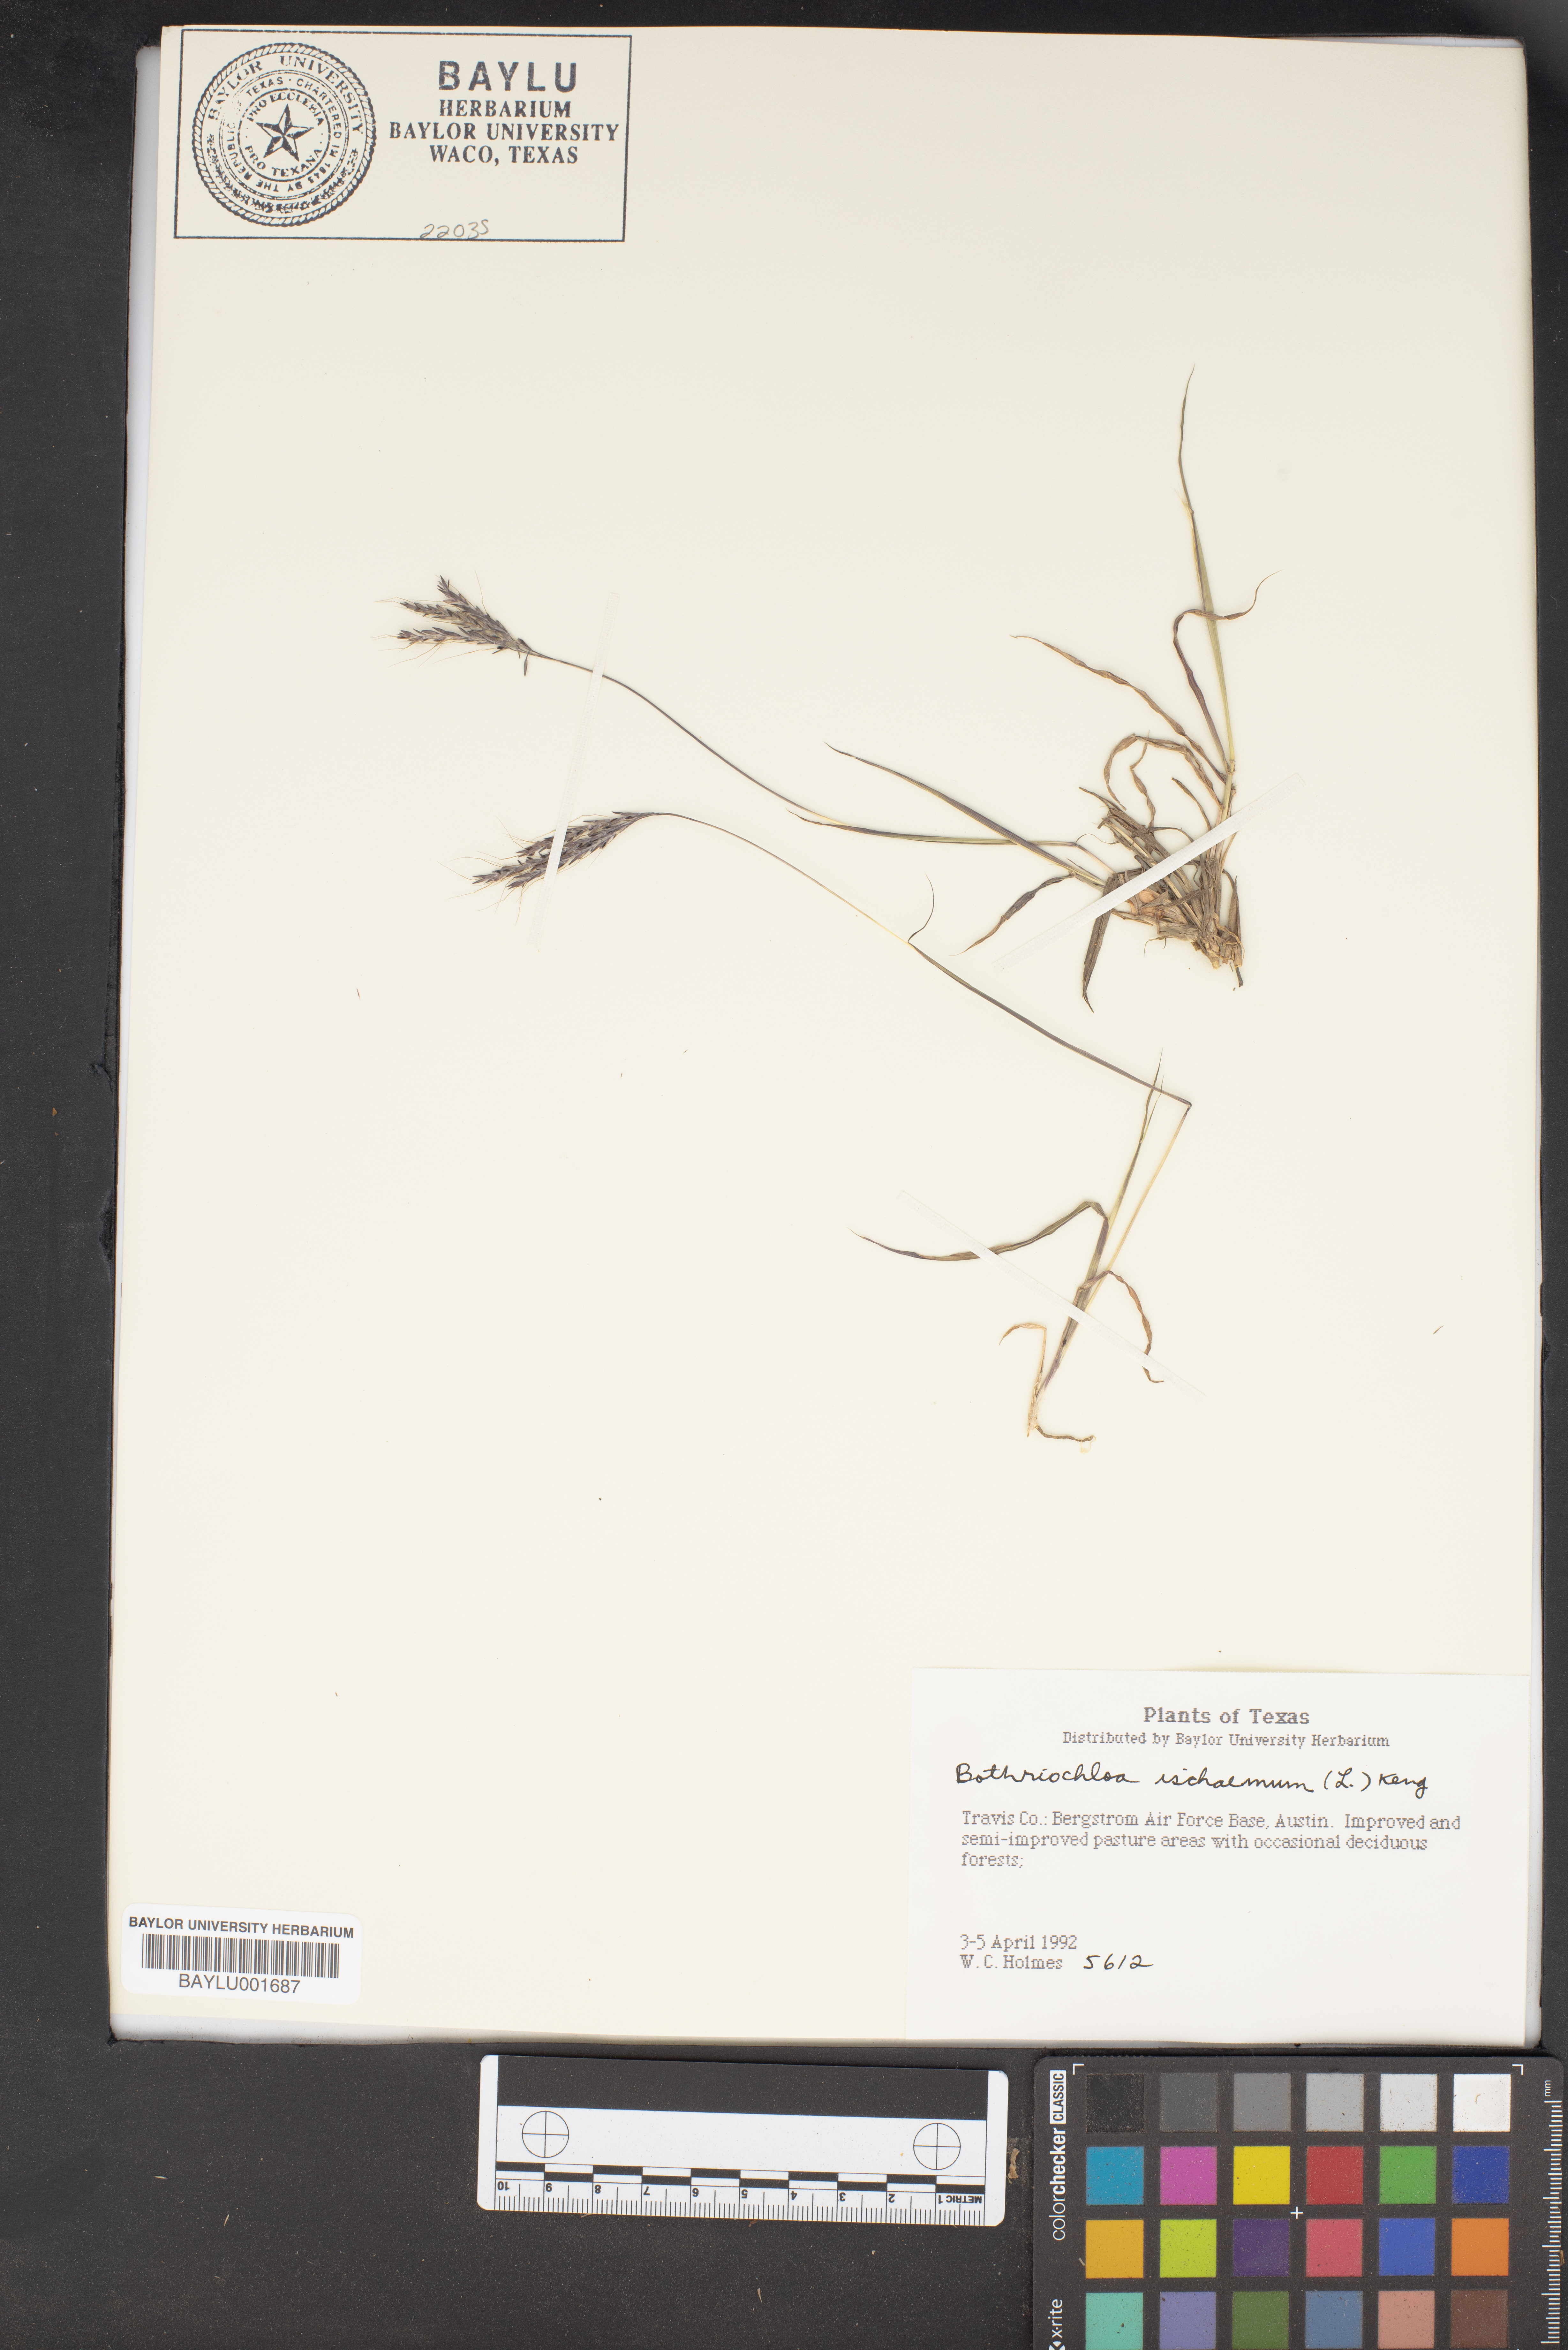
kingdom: Plantae
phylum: Tracheophyta
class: Liliopsida
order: Poales
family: Poaceae
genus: Bothriochloa
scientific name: Bothriochloa ischaemum
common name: Yellow bluestem
